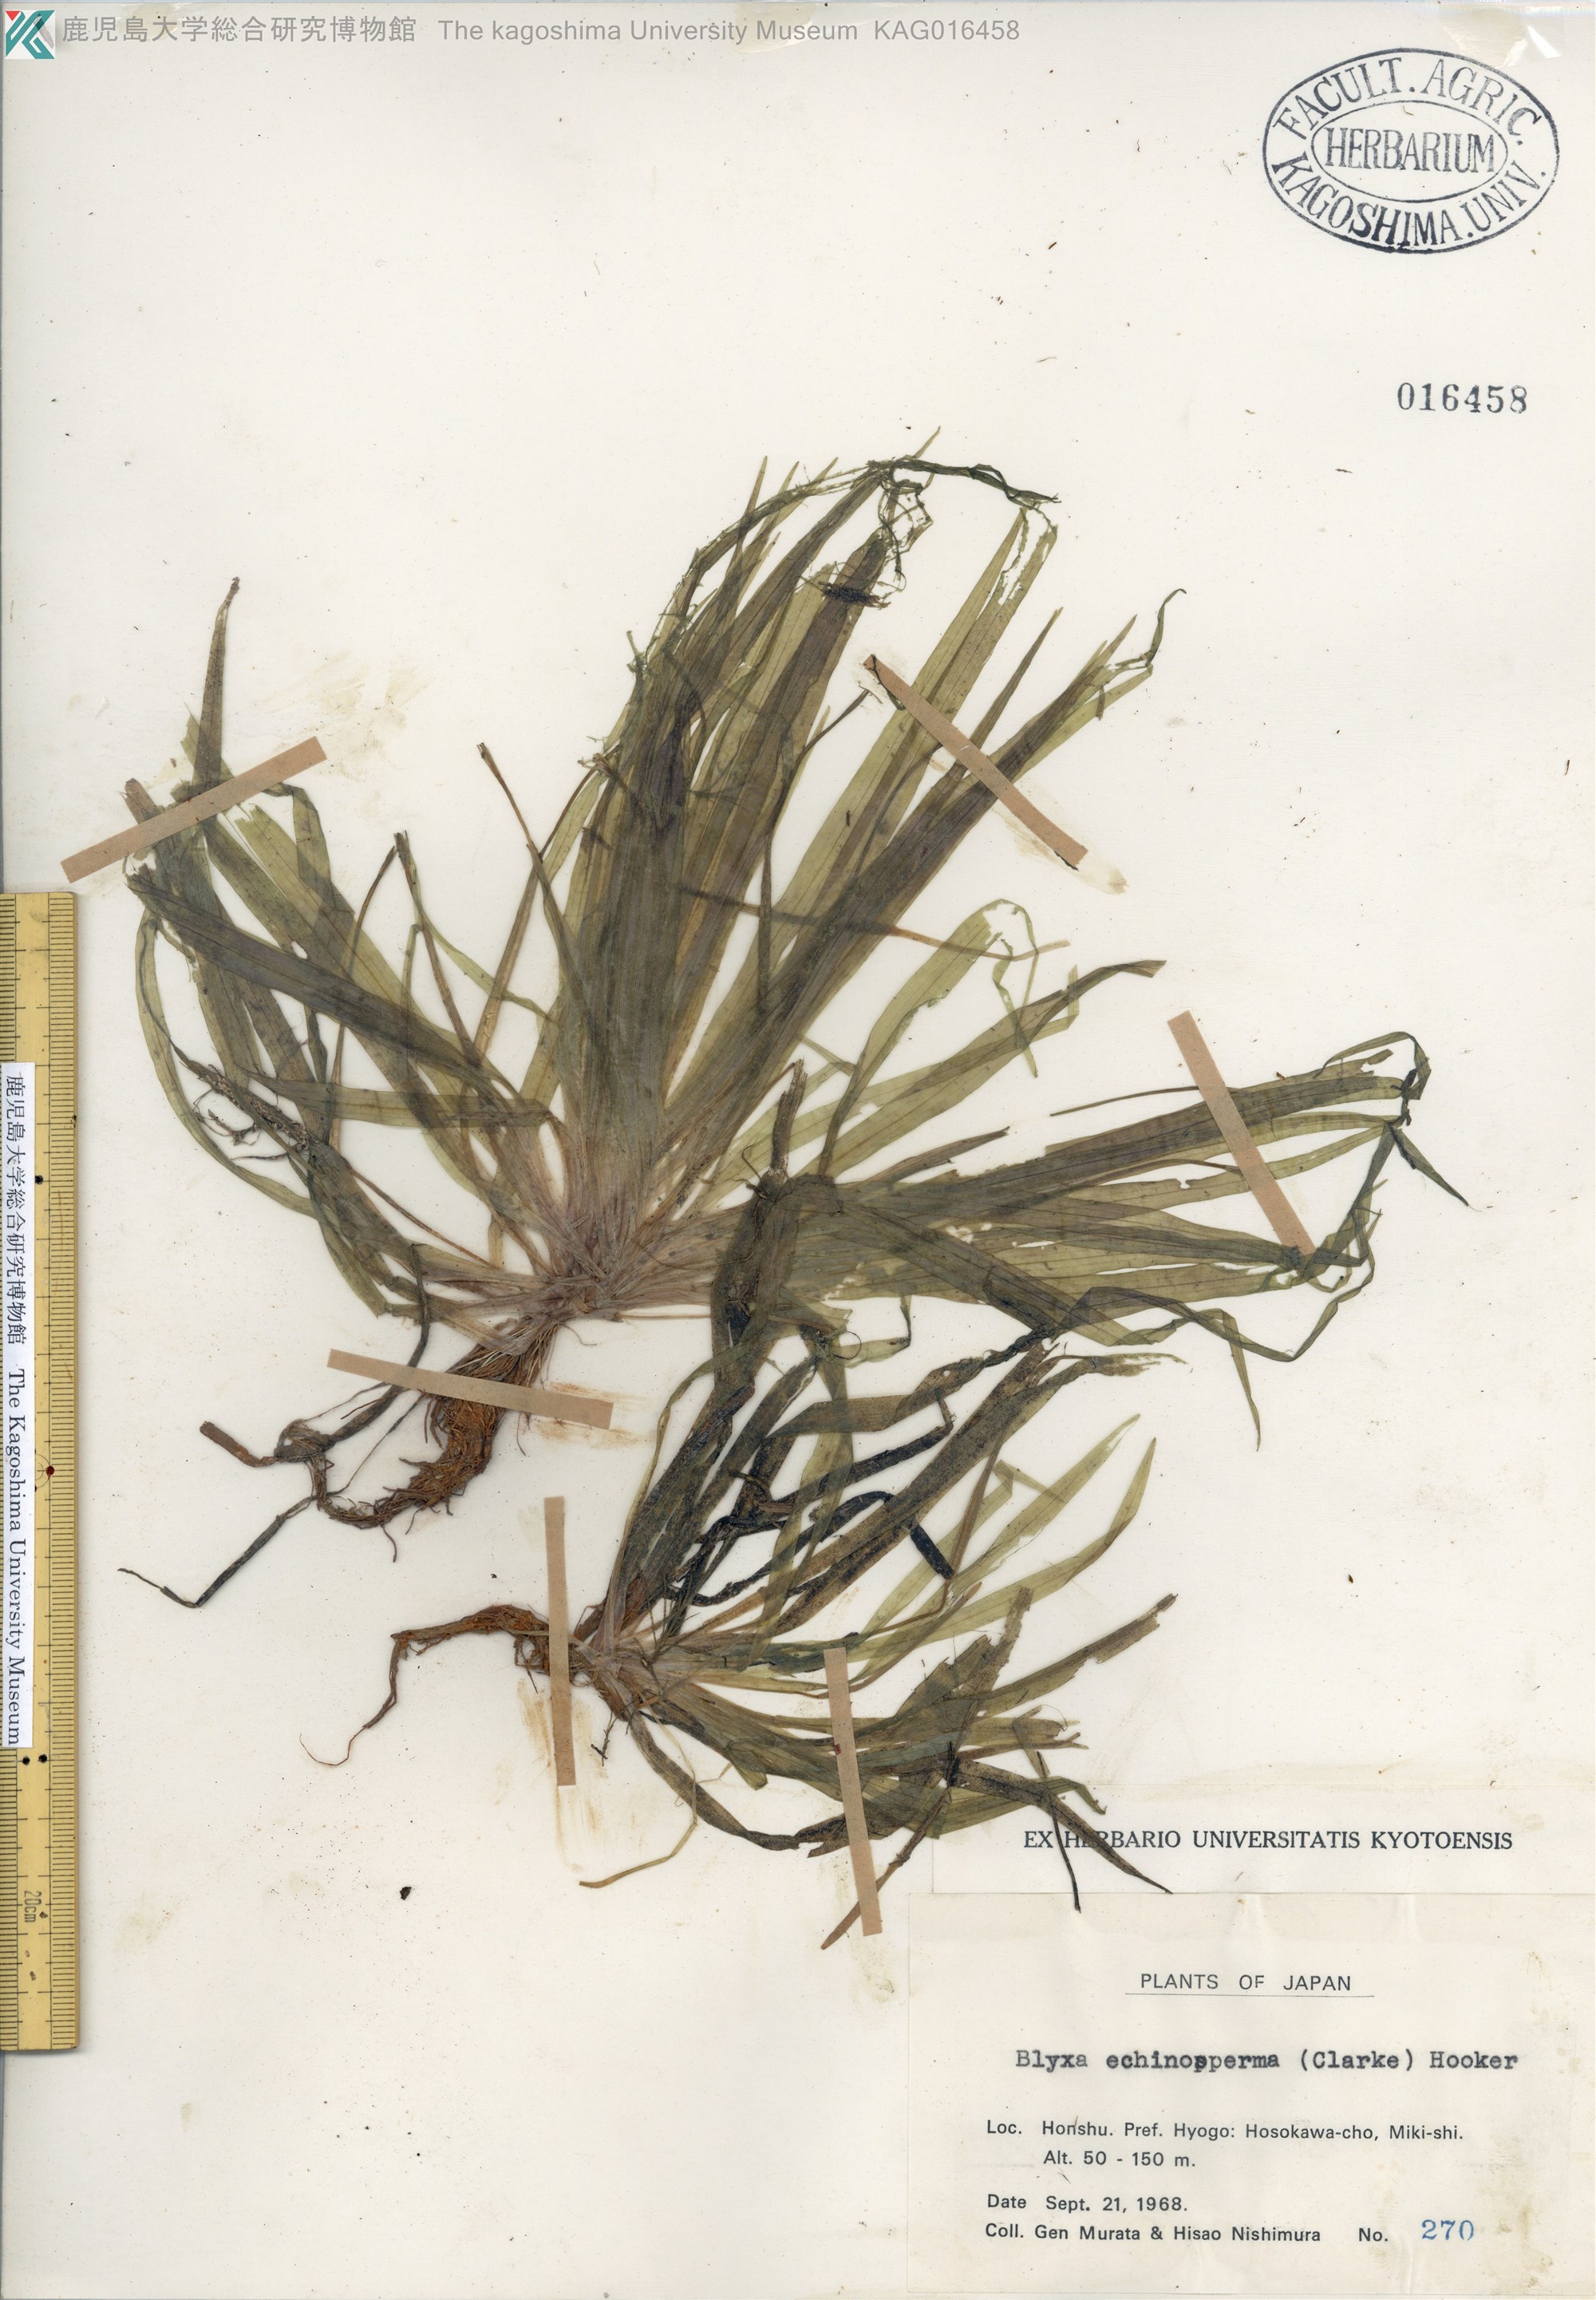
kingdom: Plantae
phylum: Tracheophyta
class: Liliopsida
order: Alismatales
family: Hydrocharitaceae
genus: Blyxa
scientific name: Blyxa echinosperma
